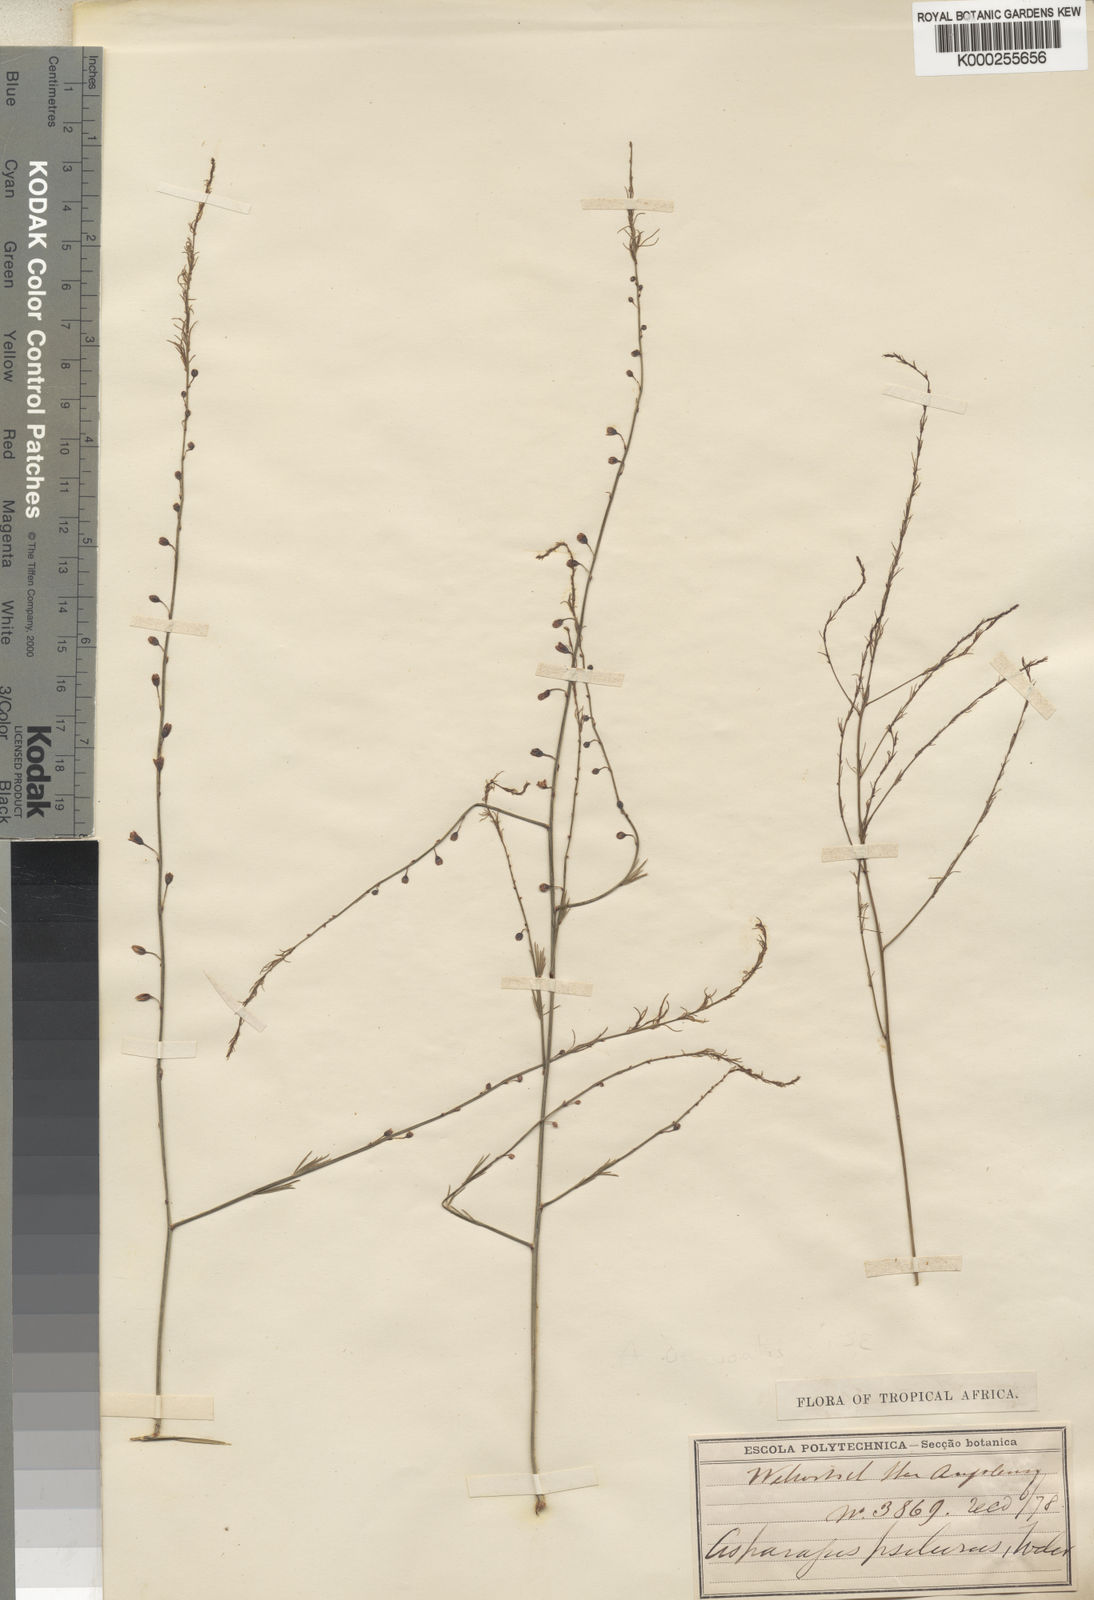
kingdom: Plantae
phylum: Tracheophyta
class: Liliopsida
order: Asparagales
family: Asparagaceae
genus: Asparagus
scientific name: Asparagus psilurus
